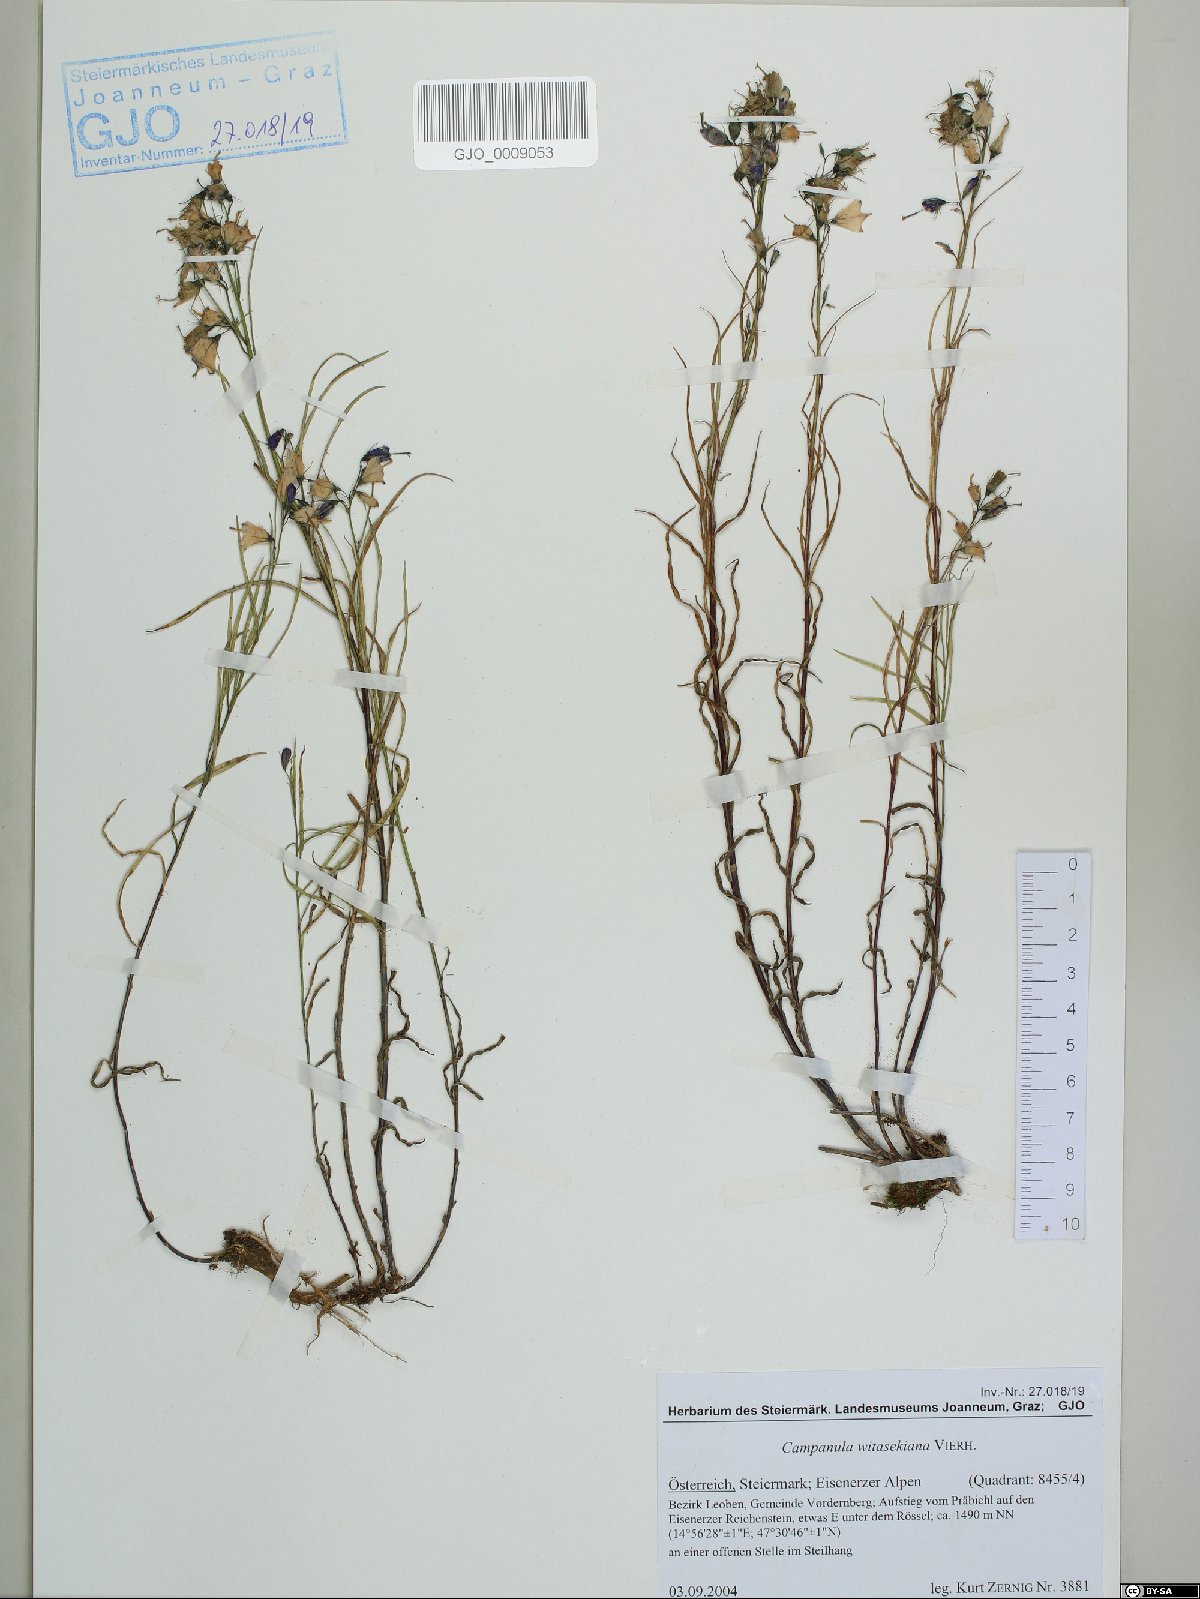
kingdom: Plantae
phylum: Tracheophyta
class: Magnoliopsida
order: Asterales
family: Campanulaceae
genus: Campanula
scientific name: Campanula witasekiana
